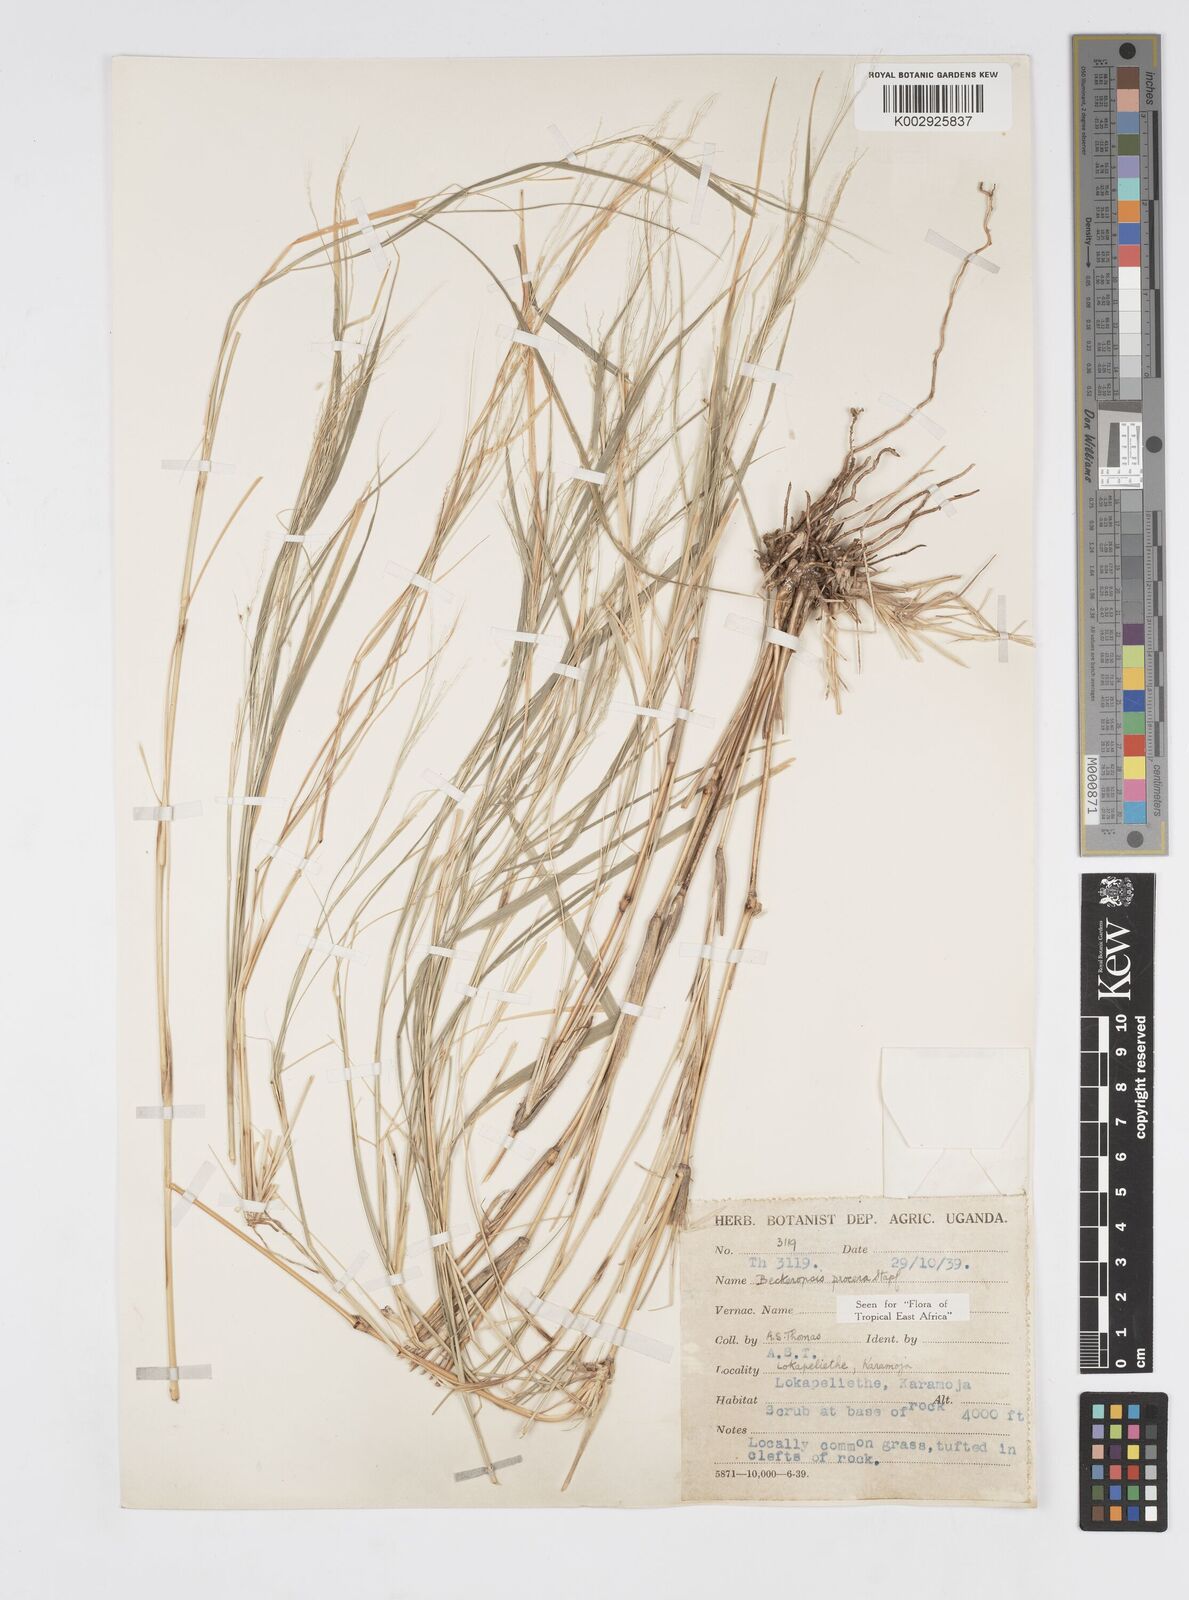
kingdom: Plantae
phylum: Tracheophyta
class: Liliopsida
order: Poales
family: Poaceae
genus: Cenchrus
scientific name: Cenchrus procerus
